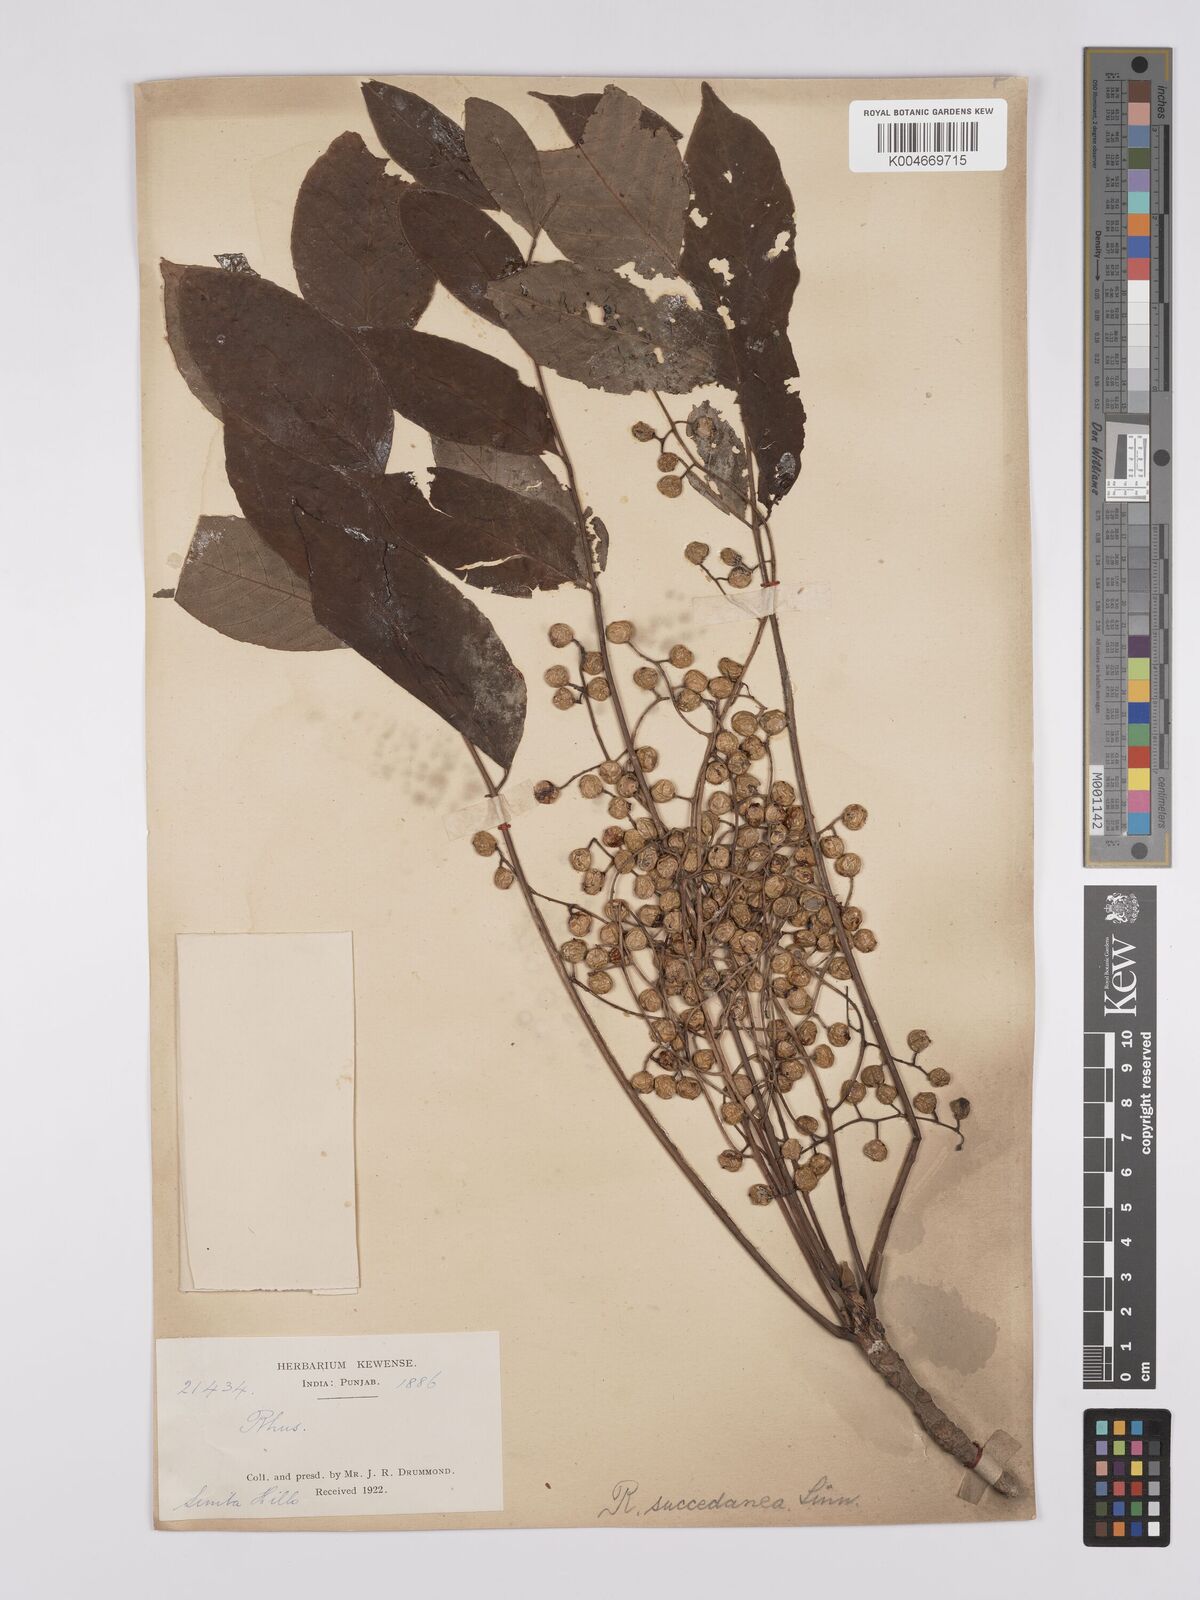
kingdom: Plantae
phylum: Tracheophyta
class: Magnoliopsida
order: Sapindales
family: Anacardiaceae
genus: Toxicodendron
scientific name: Toxicodendron succedaneum
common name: Wax tree
